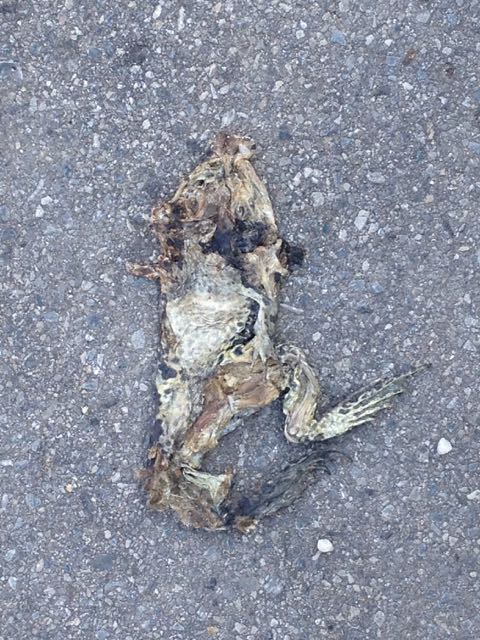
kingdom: Animalia
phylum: Chordata
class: Amphibia
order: Anura
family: Bufonidae
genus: Bufotes
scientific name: Bufotes viridis
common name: European green toad
